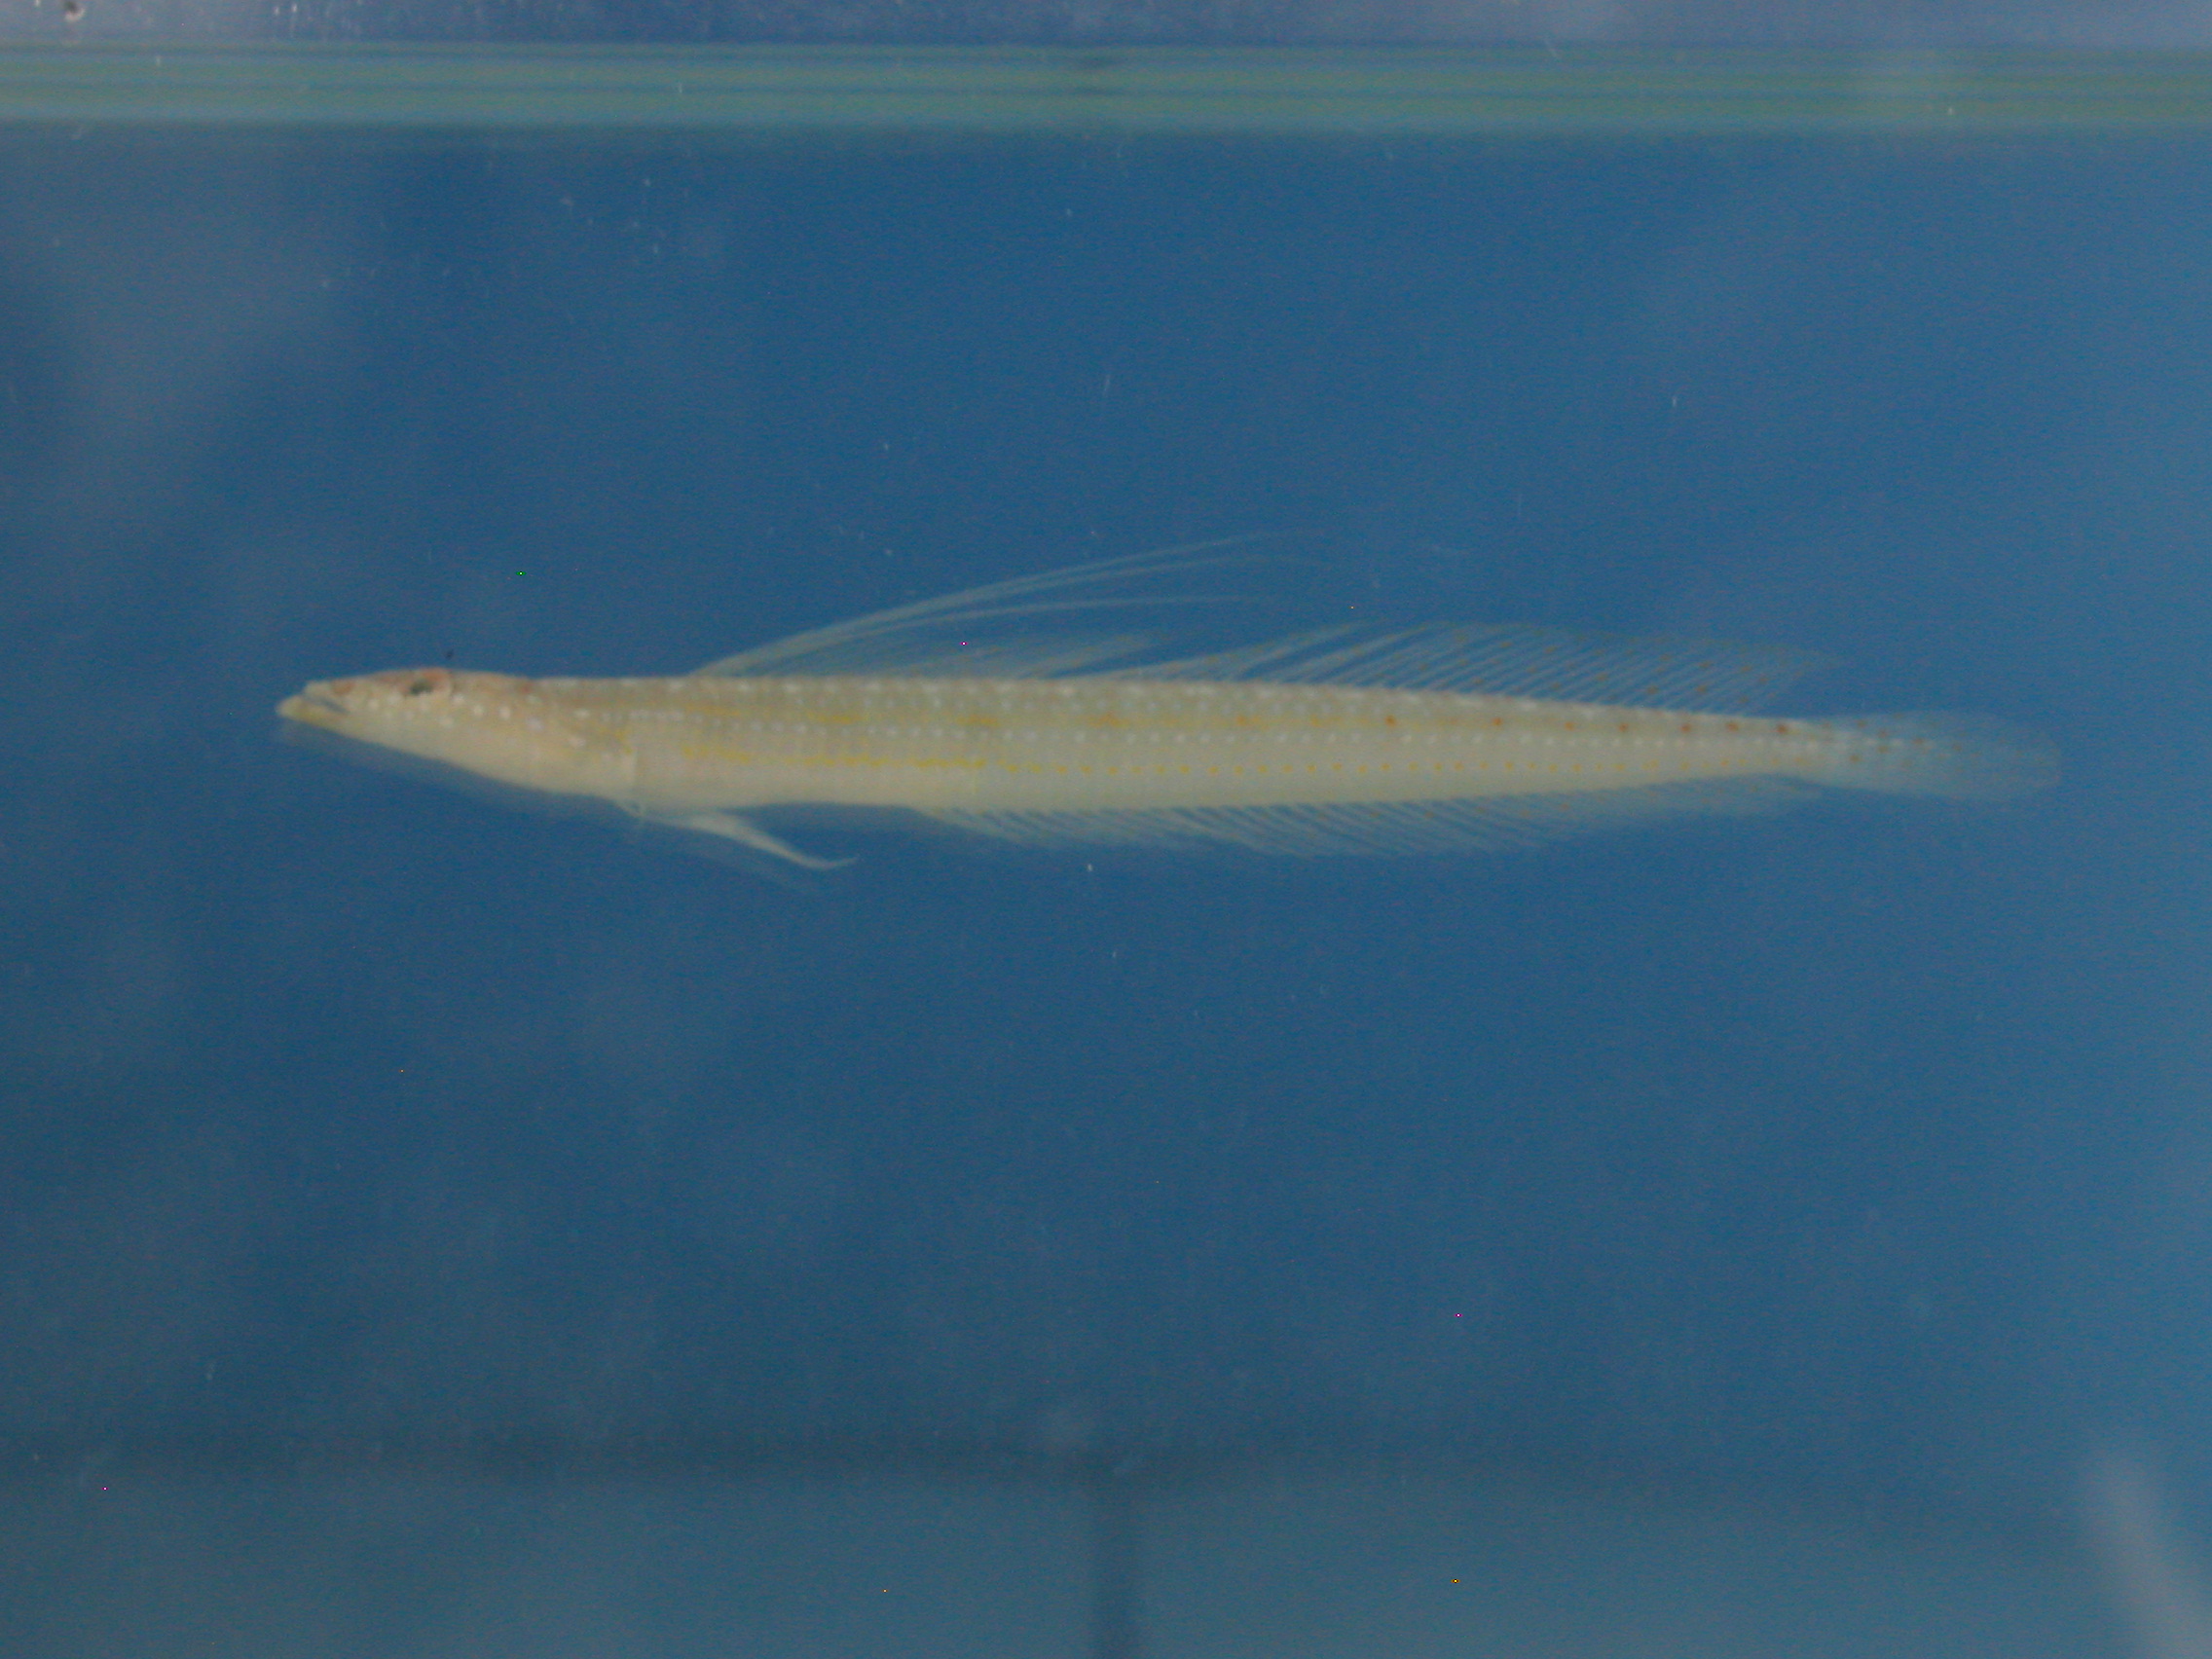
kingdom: Animalia
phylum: Chordata
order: Perciformes
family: Trichonotidae
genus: Trichonotus
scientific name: Trichonotus
